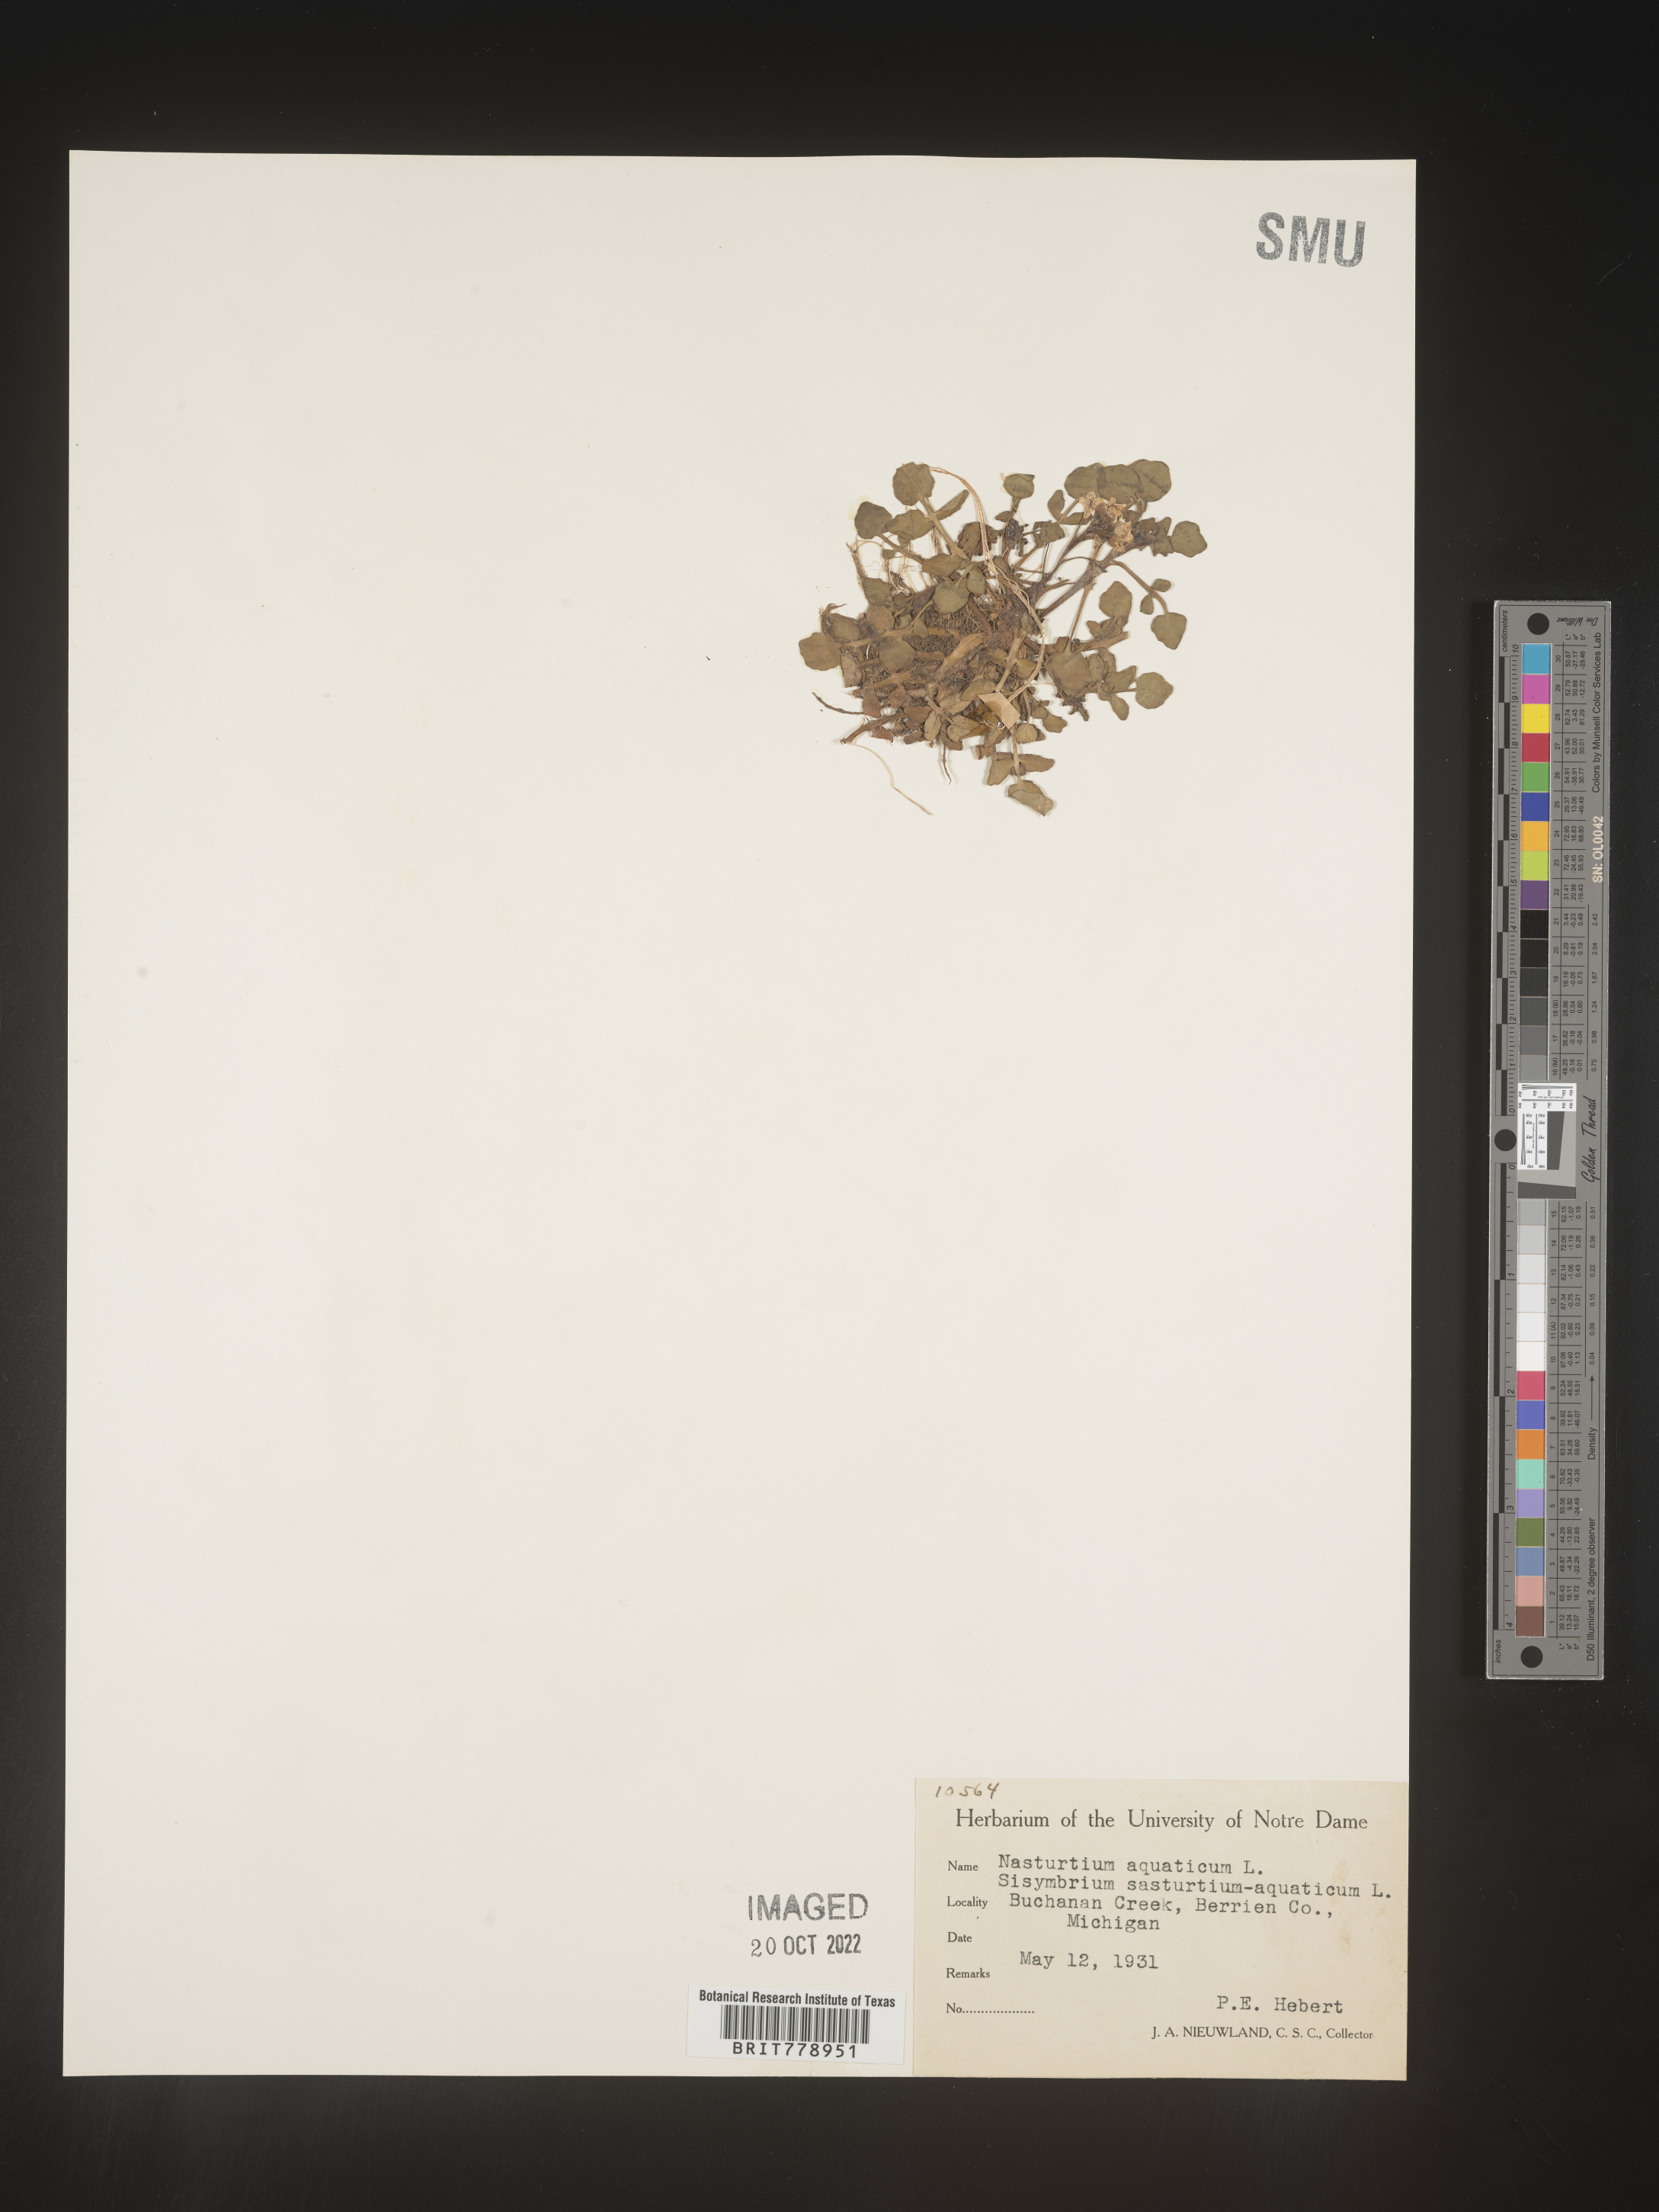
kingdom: Plantae
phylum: Tracheophyta
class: Magnoliopsida
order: Brassicales
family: Brassicaceae
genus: Nasturtium
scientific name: Nasturtium officinale
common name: Watercress
